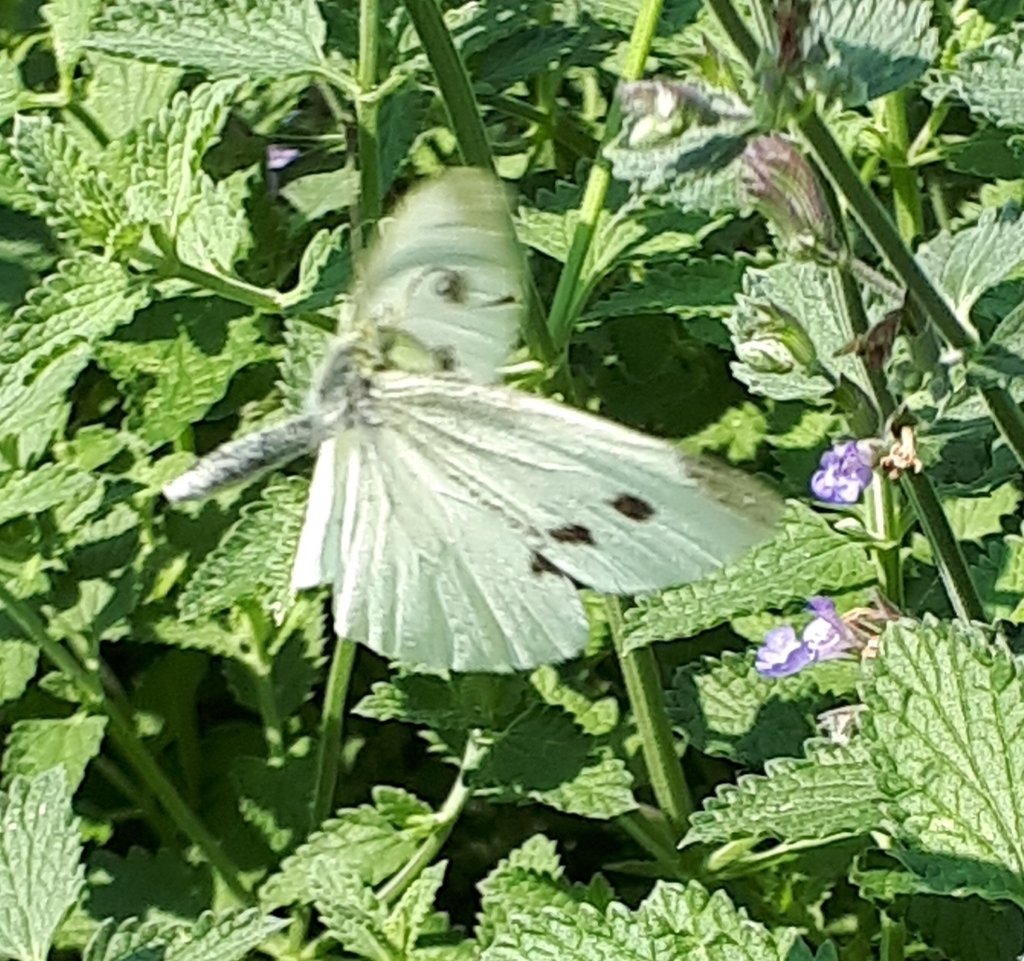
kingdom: Animalia
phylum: Arthropoda
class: Insecta
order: Lepidoptera
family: Pieridae
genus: Pieris
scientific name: Pieris rapae
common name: Cabbage White
